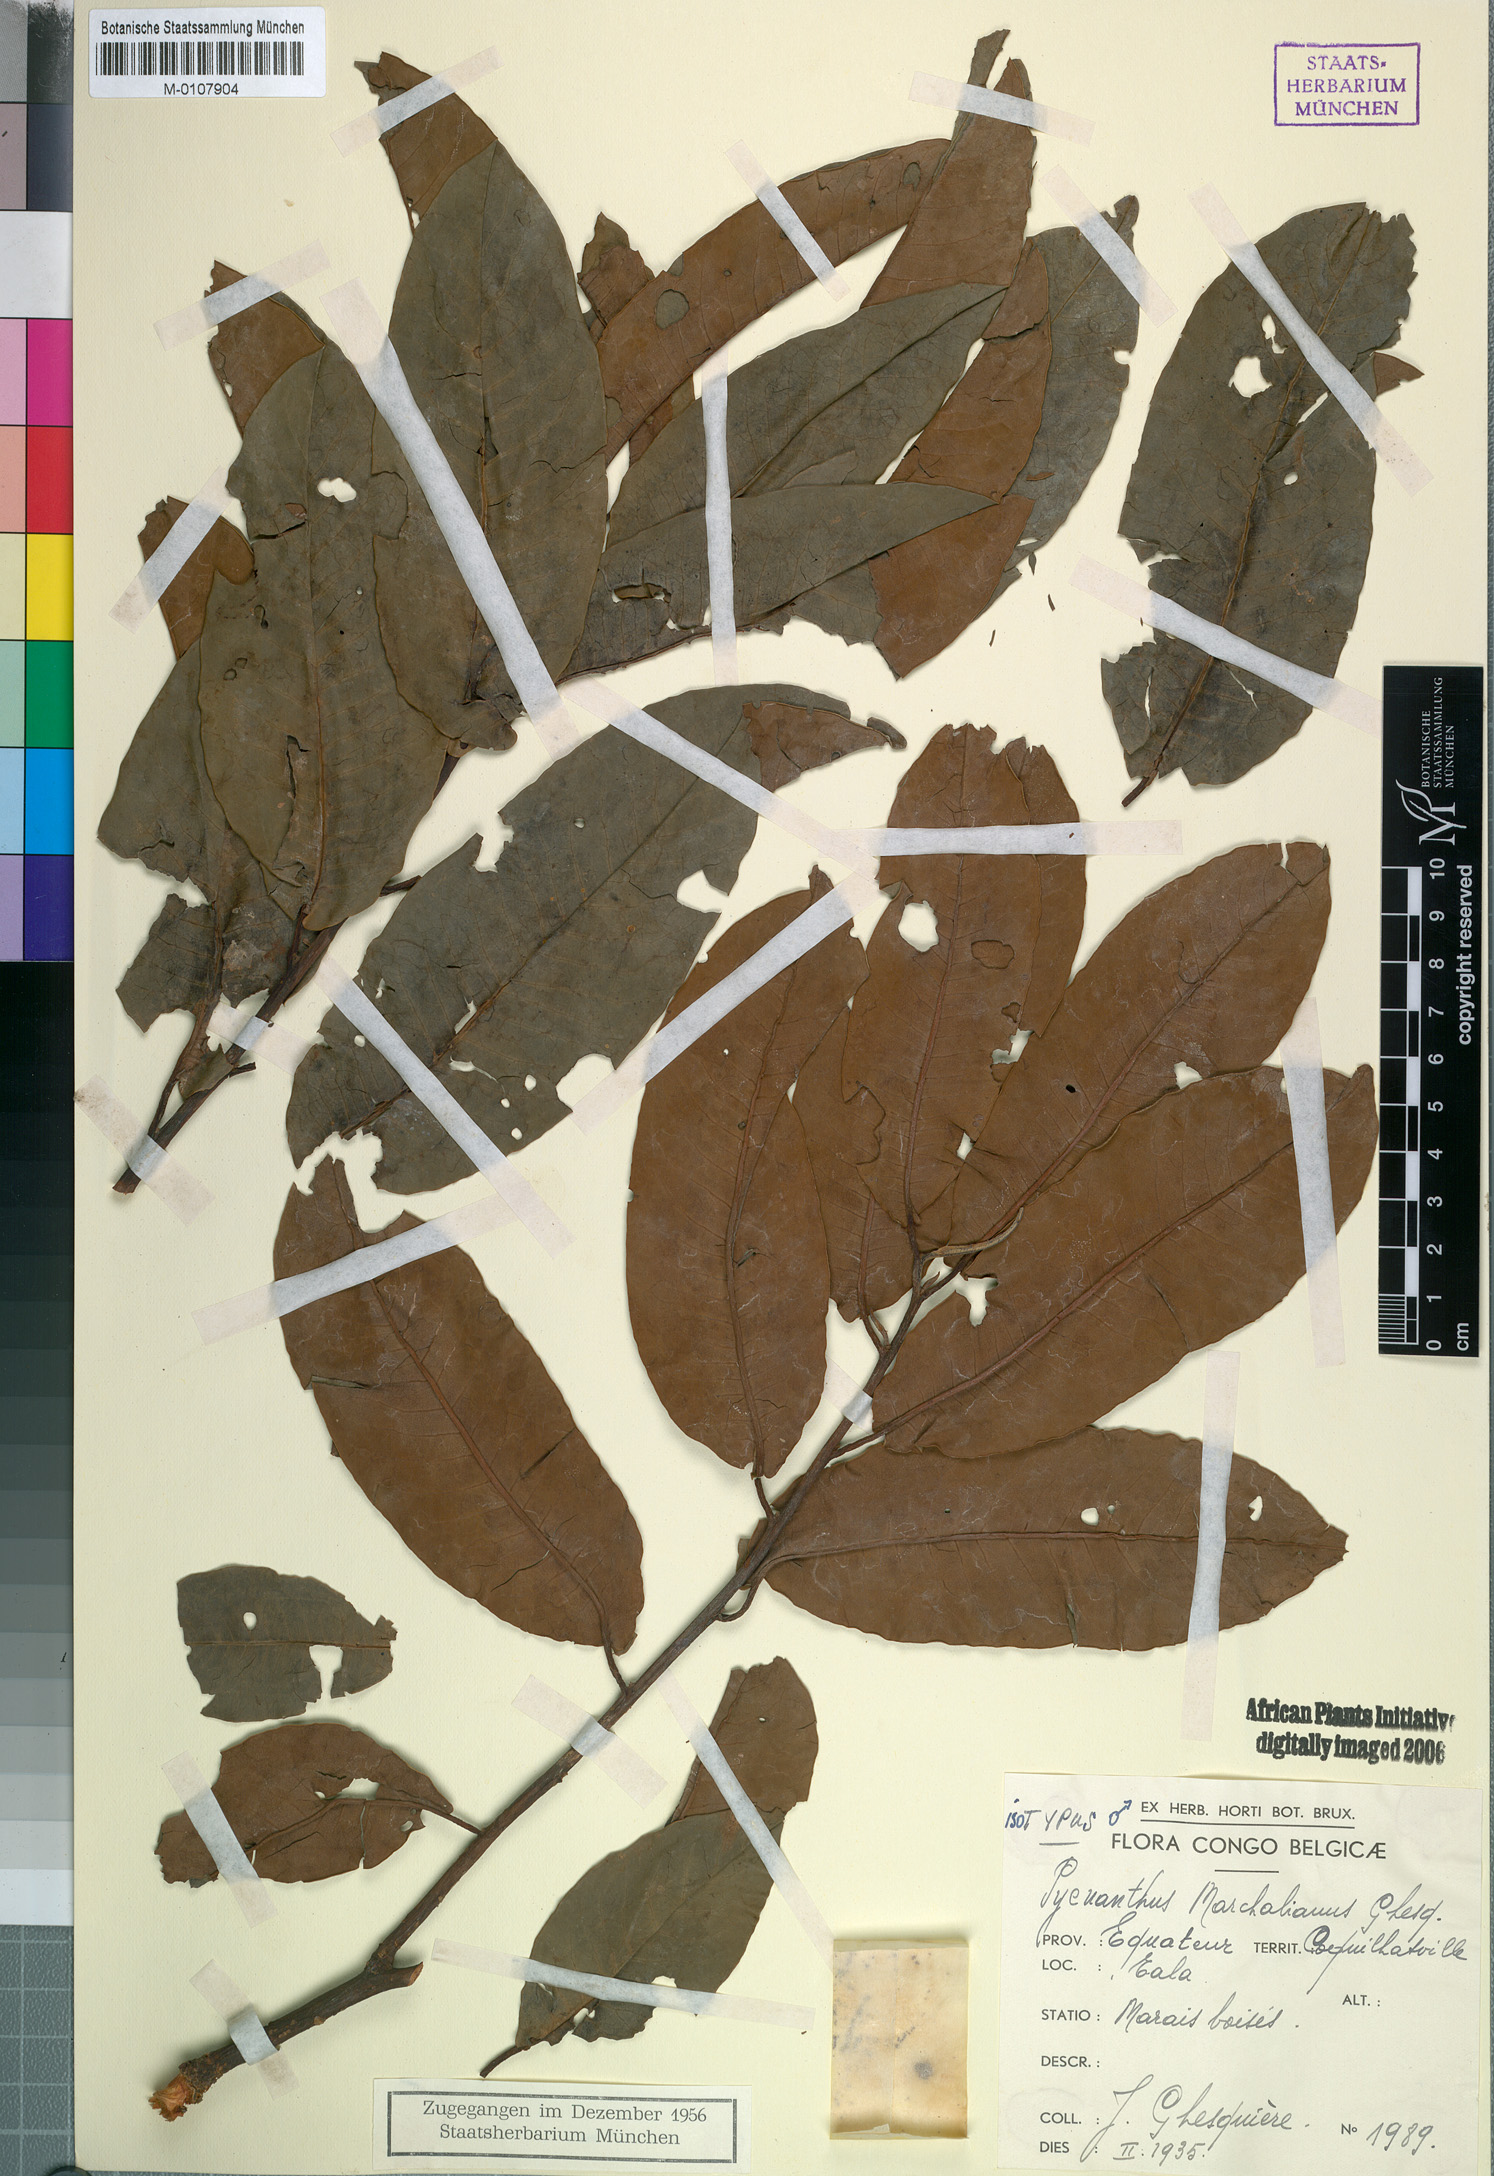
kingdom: Plantae
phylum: Tracheophyta
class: Magnoliopsida
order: Magnoliales
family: Myristicaceae
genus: Pycnanthus
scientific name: Pycnanthus marchalianus
